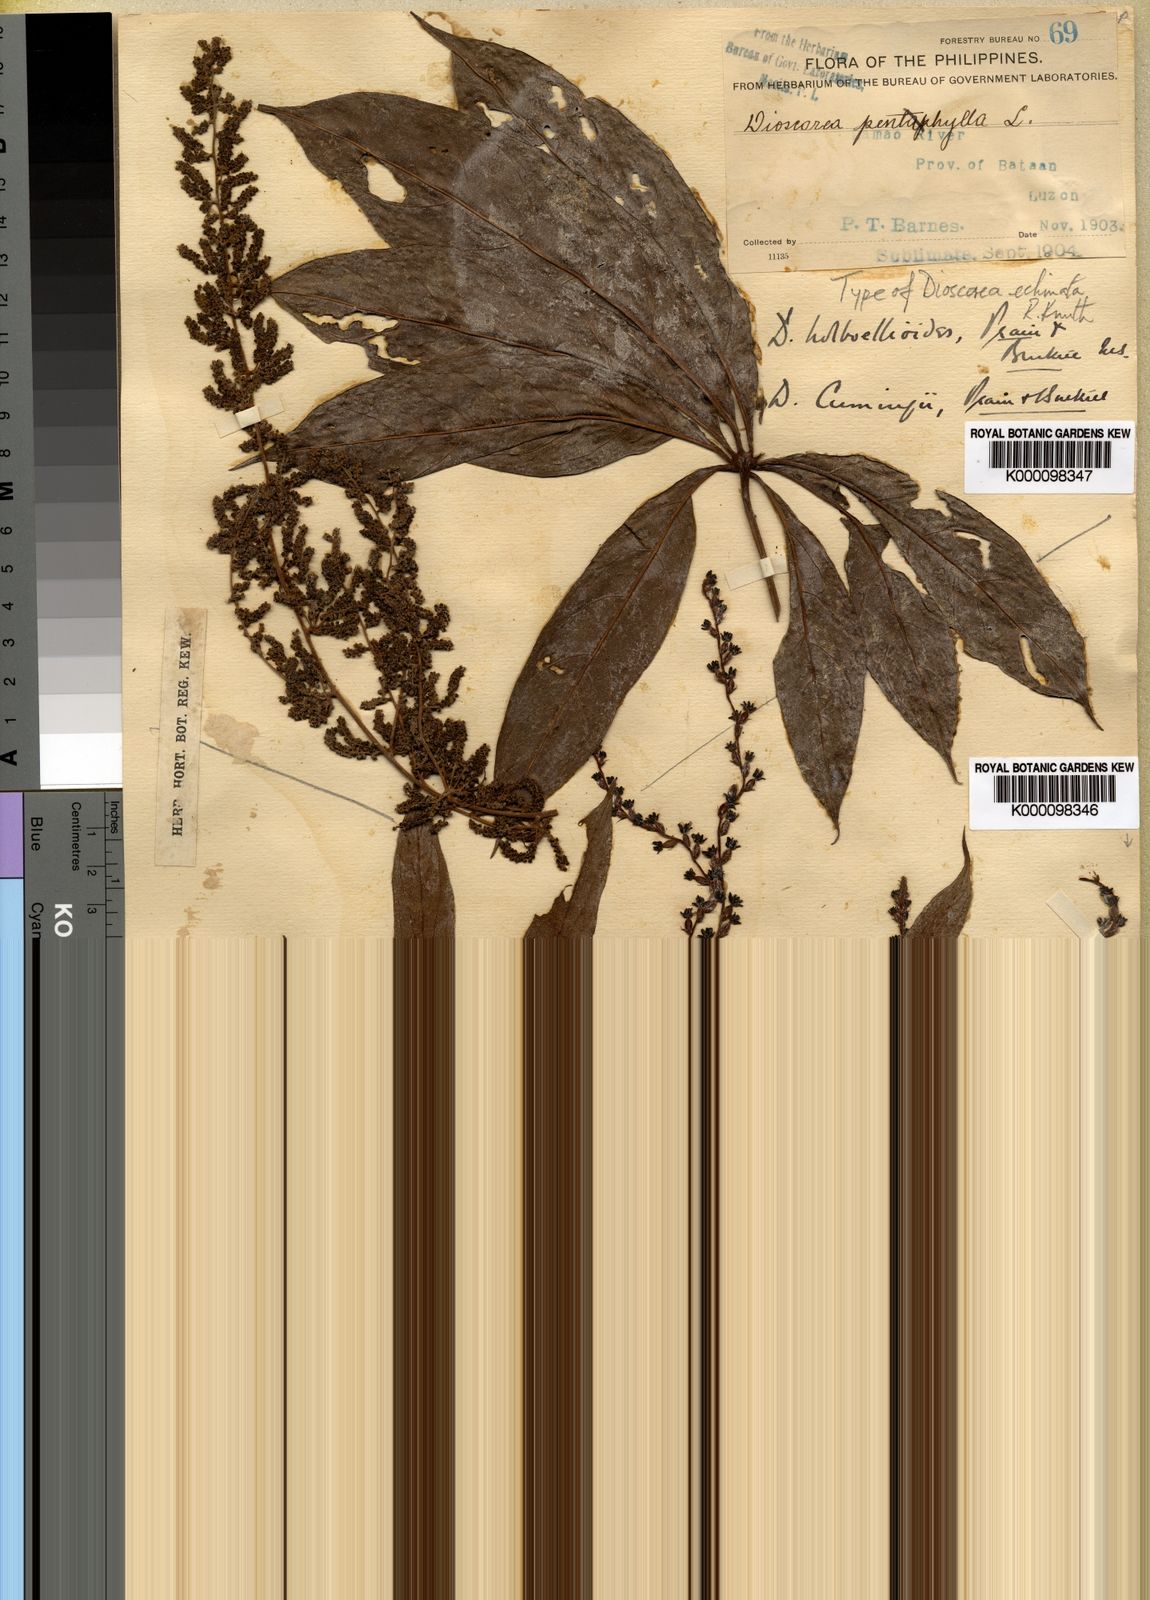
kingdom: Plantae
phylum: Tracheophyta
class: Liliopsida
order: Dioscoreales
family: Dioscoreaceae
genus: Dioscorea
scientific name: Dioscorea cumingii
